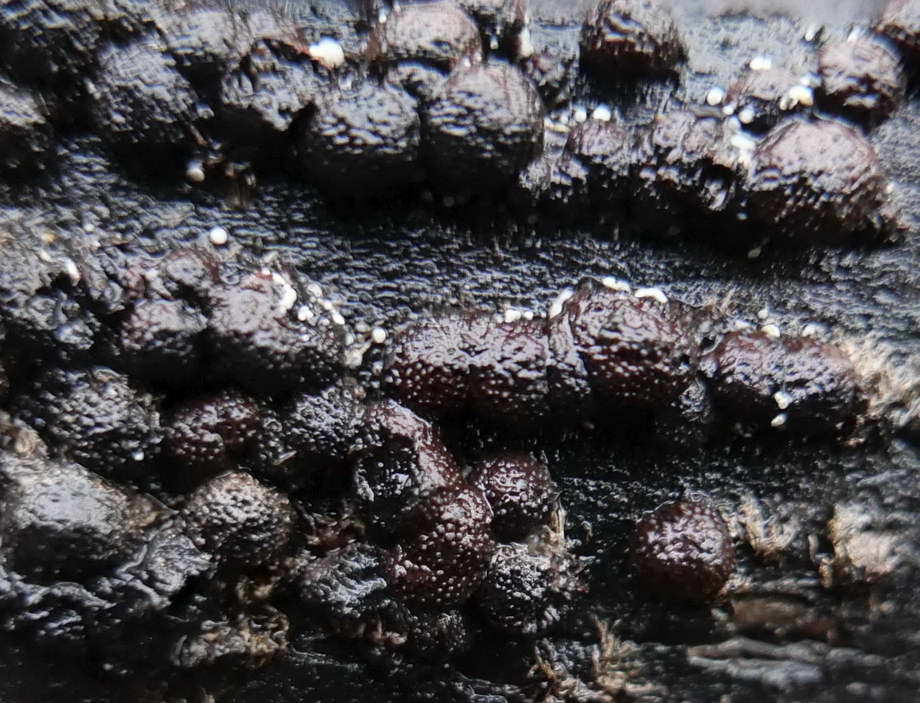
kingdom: Fungi
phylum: Ascomycota
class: Leotiomycetes
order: Helotiales
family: Hyaloscyphaceae
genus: Polydesmia
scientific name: Polydesmia pruinosa
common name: dunskive
